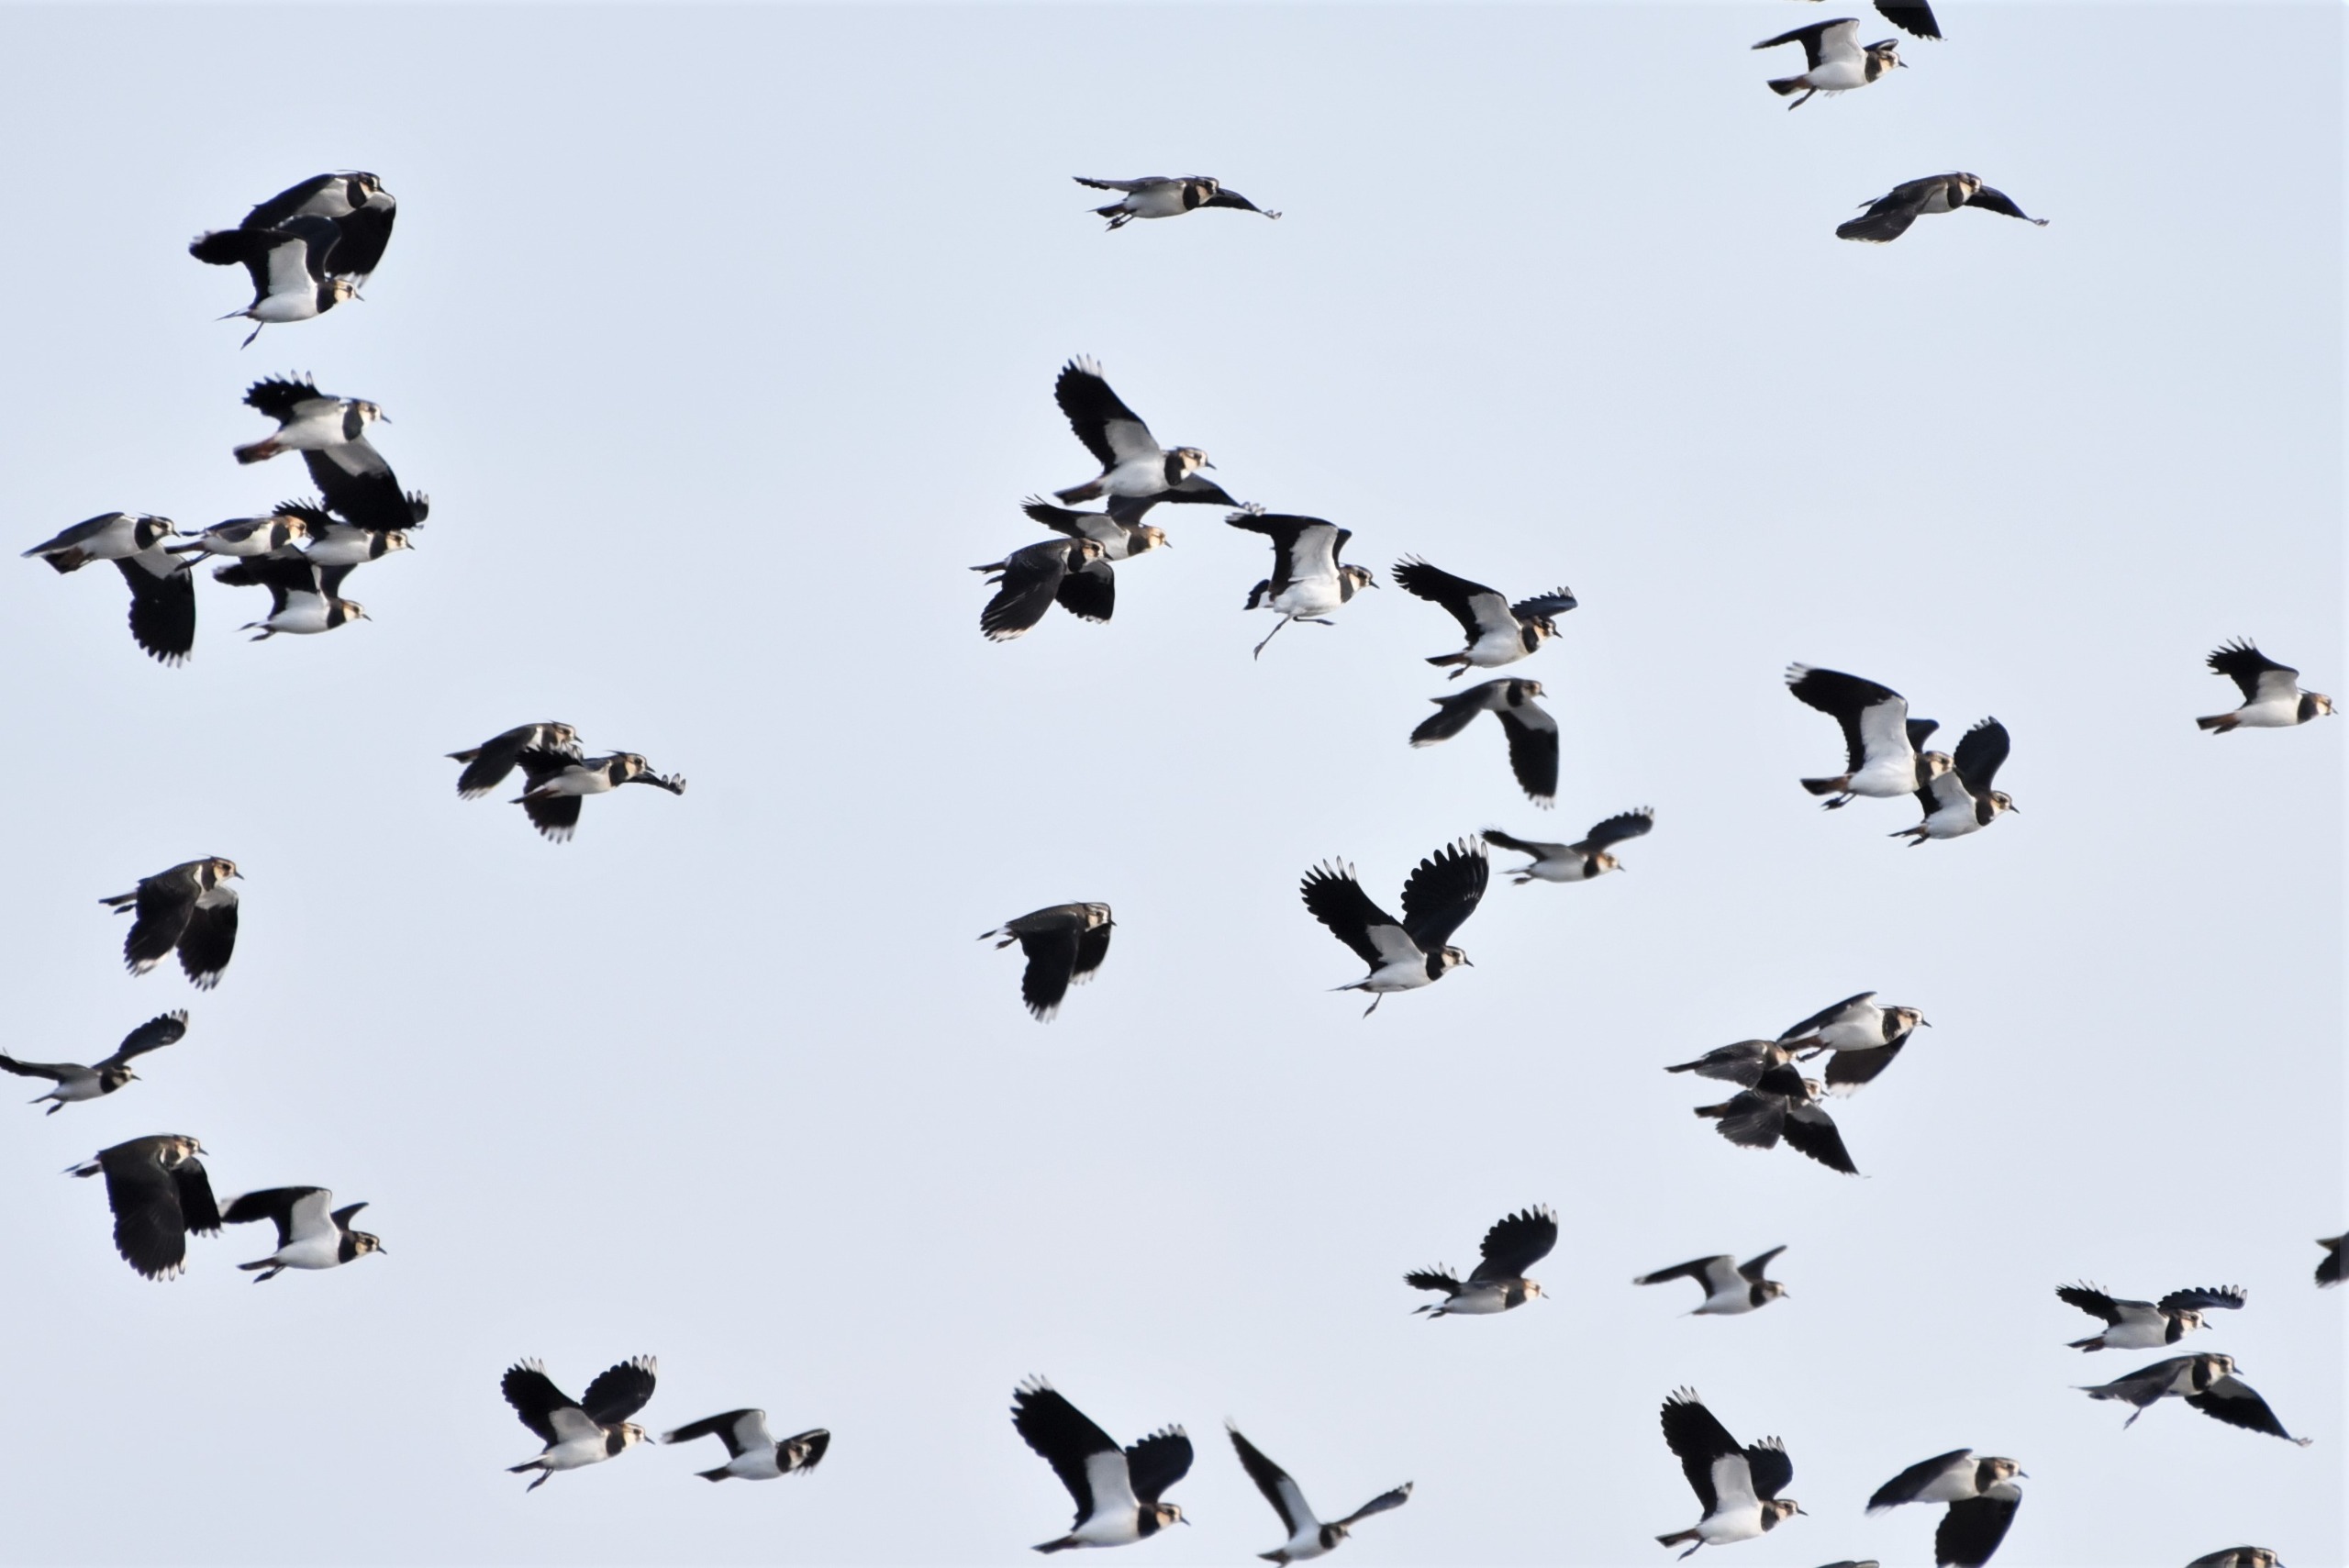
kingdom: Animalia
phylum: Chordata
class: Aves
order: Charadriiformes
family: Charadriidae
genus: Vanellus
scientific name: Vanellus vanellus
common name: Vibe
